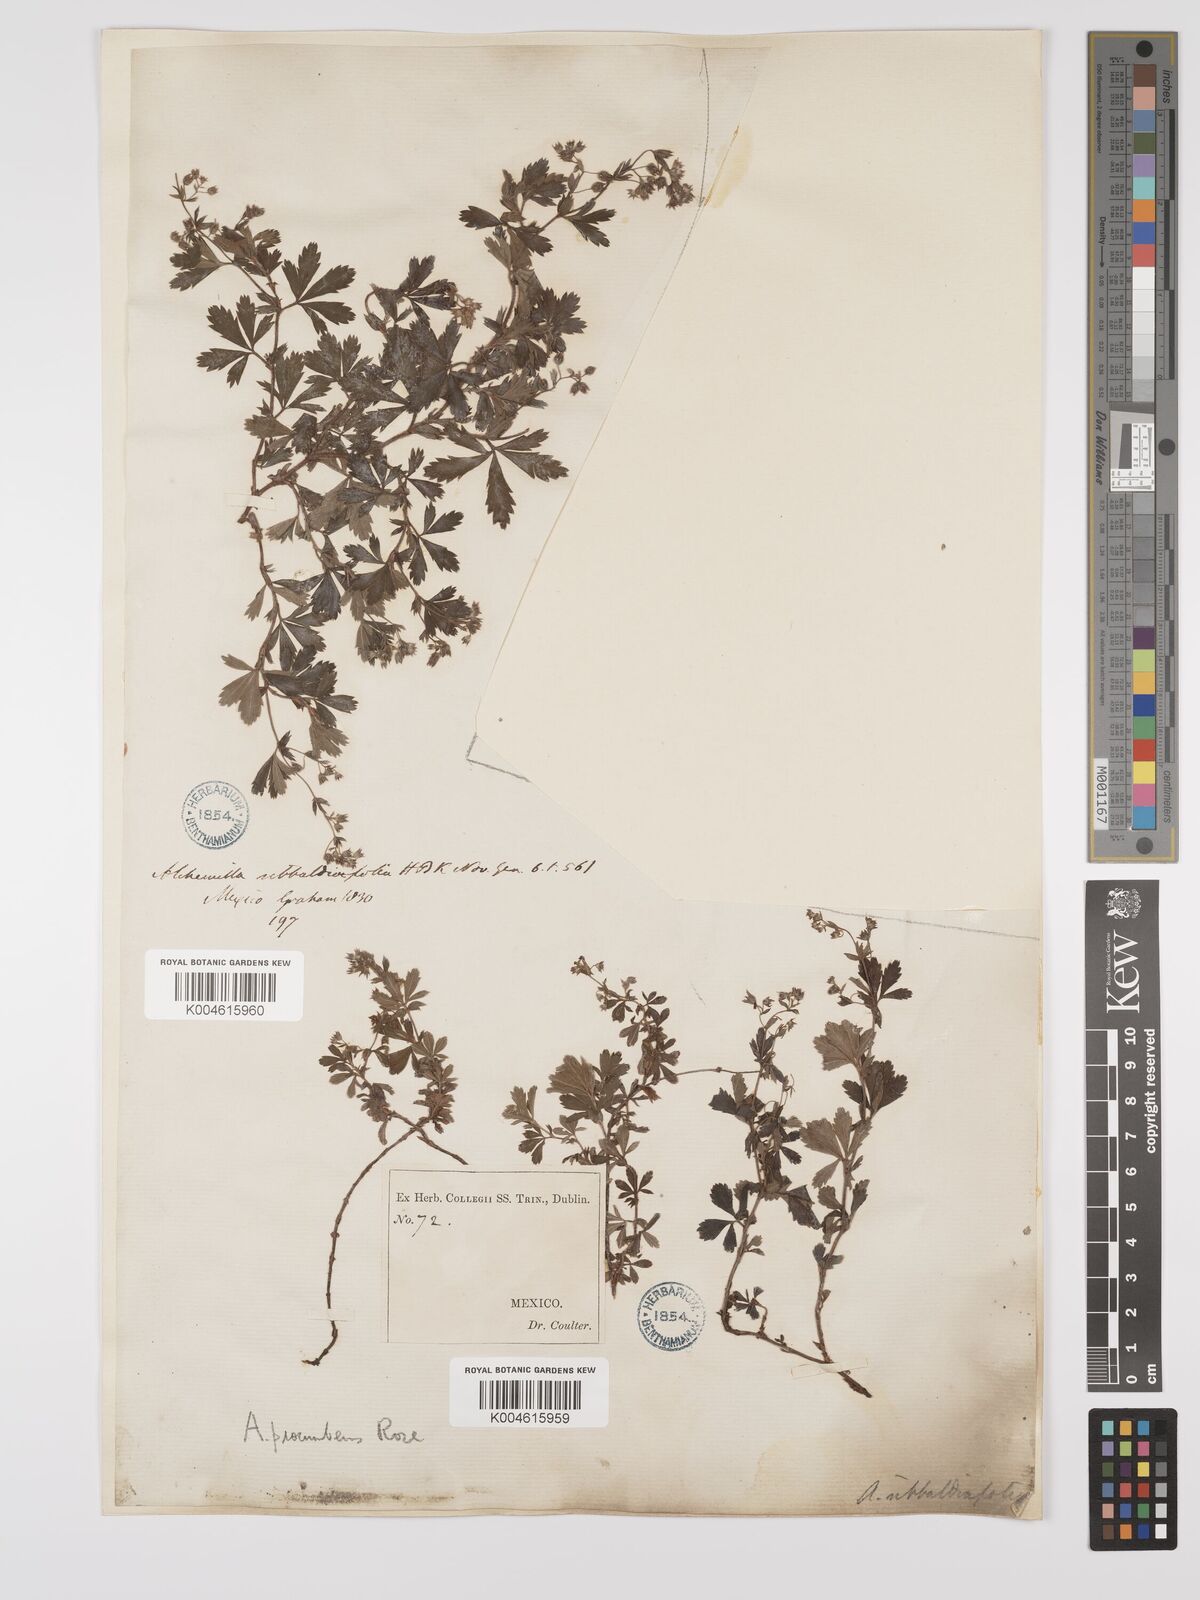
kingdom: Plantae
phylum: Tracheophyta
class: Magnoliopsida
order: Rosales
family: Rosaceae
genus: Lachemilla
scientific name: Lachemilla procumbens
